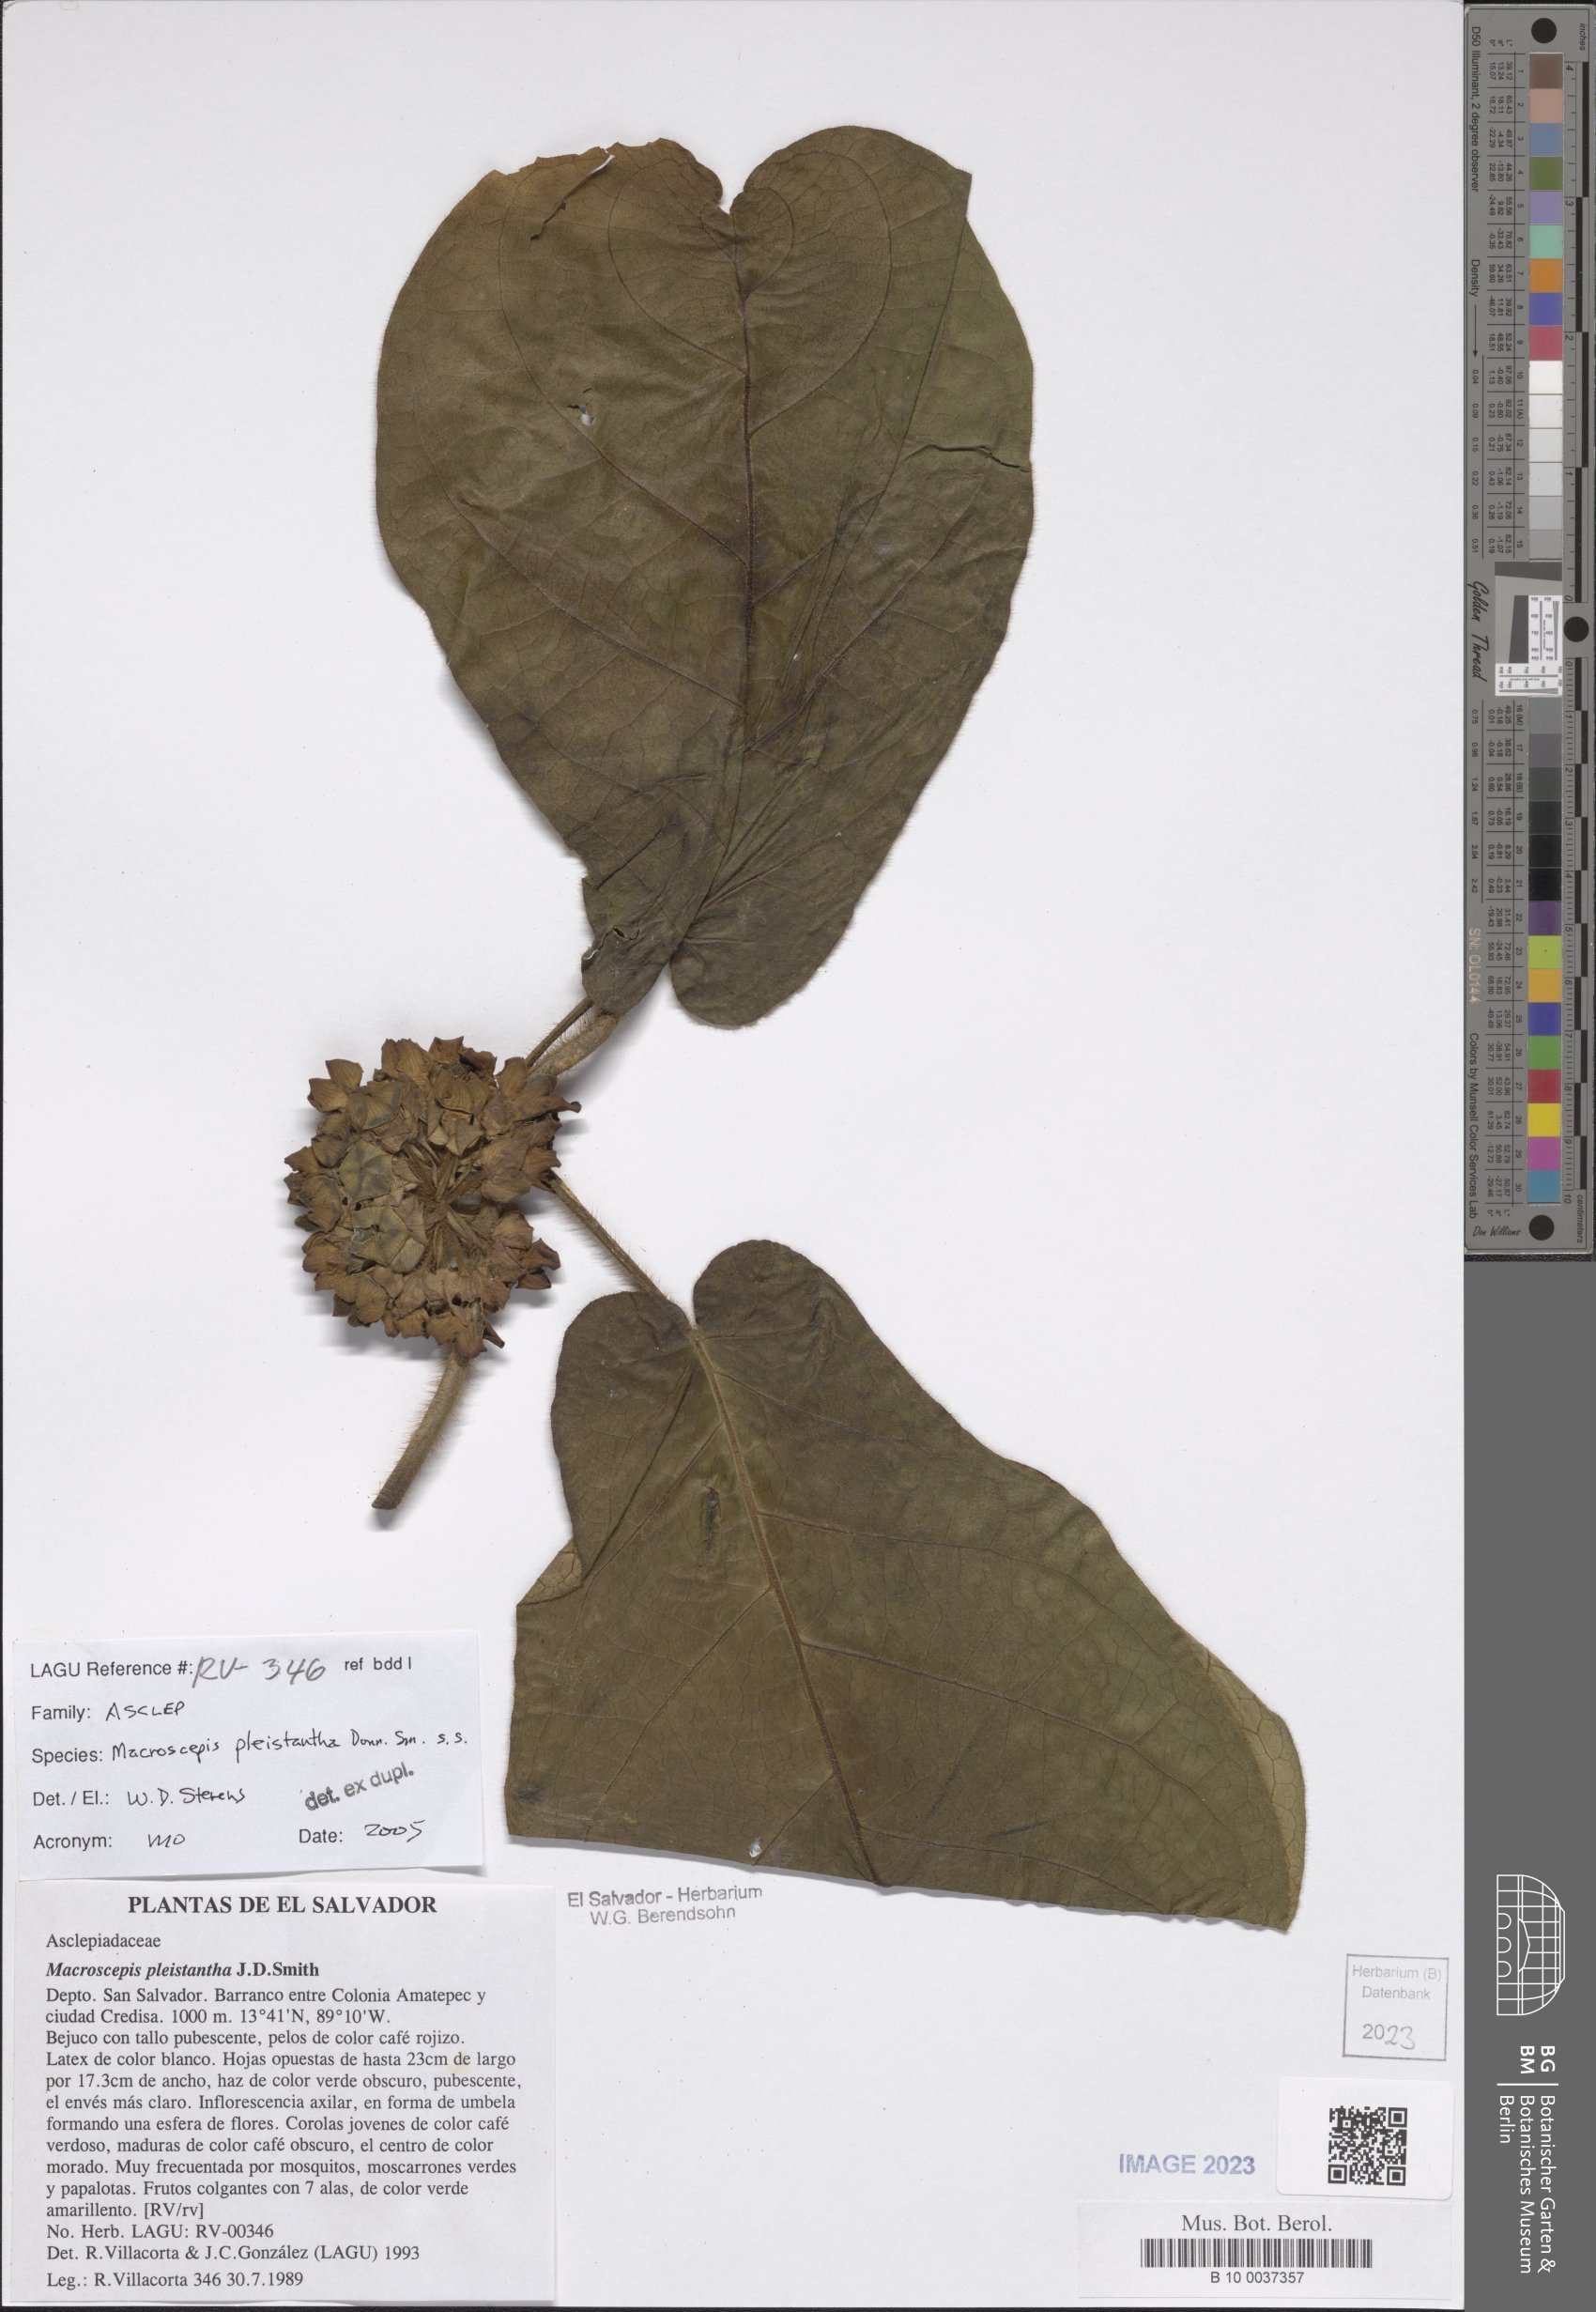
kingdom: Plantae
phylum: Tracheophyta
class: Magnoliopsida
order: Gentianales
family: Apocynaceae
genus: Macroscepis
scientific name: Macroscepis pleistantha
